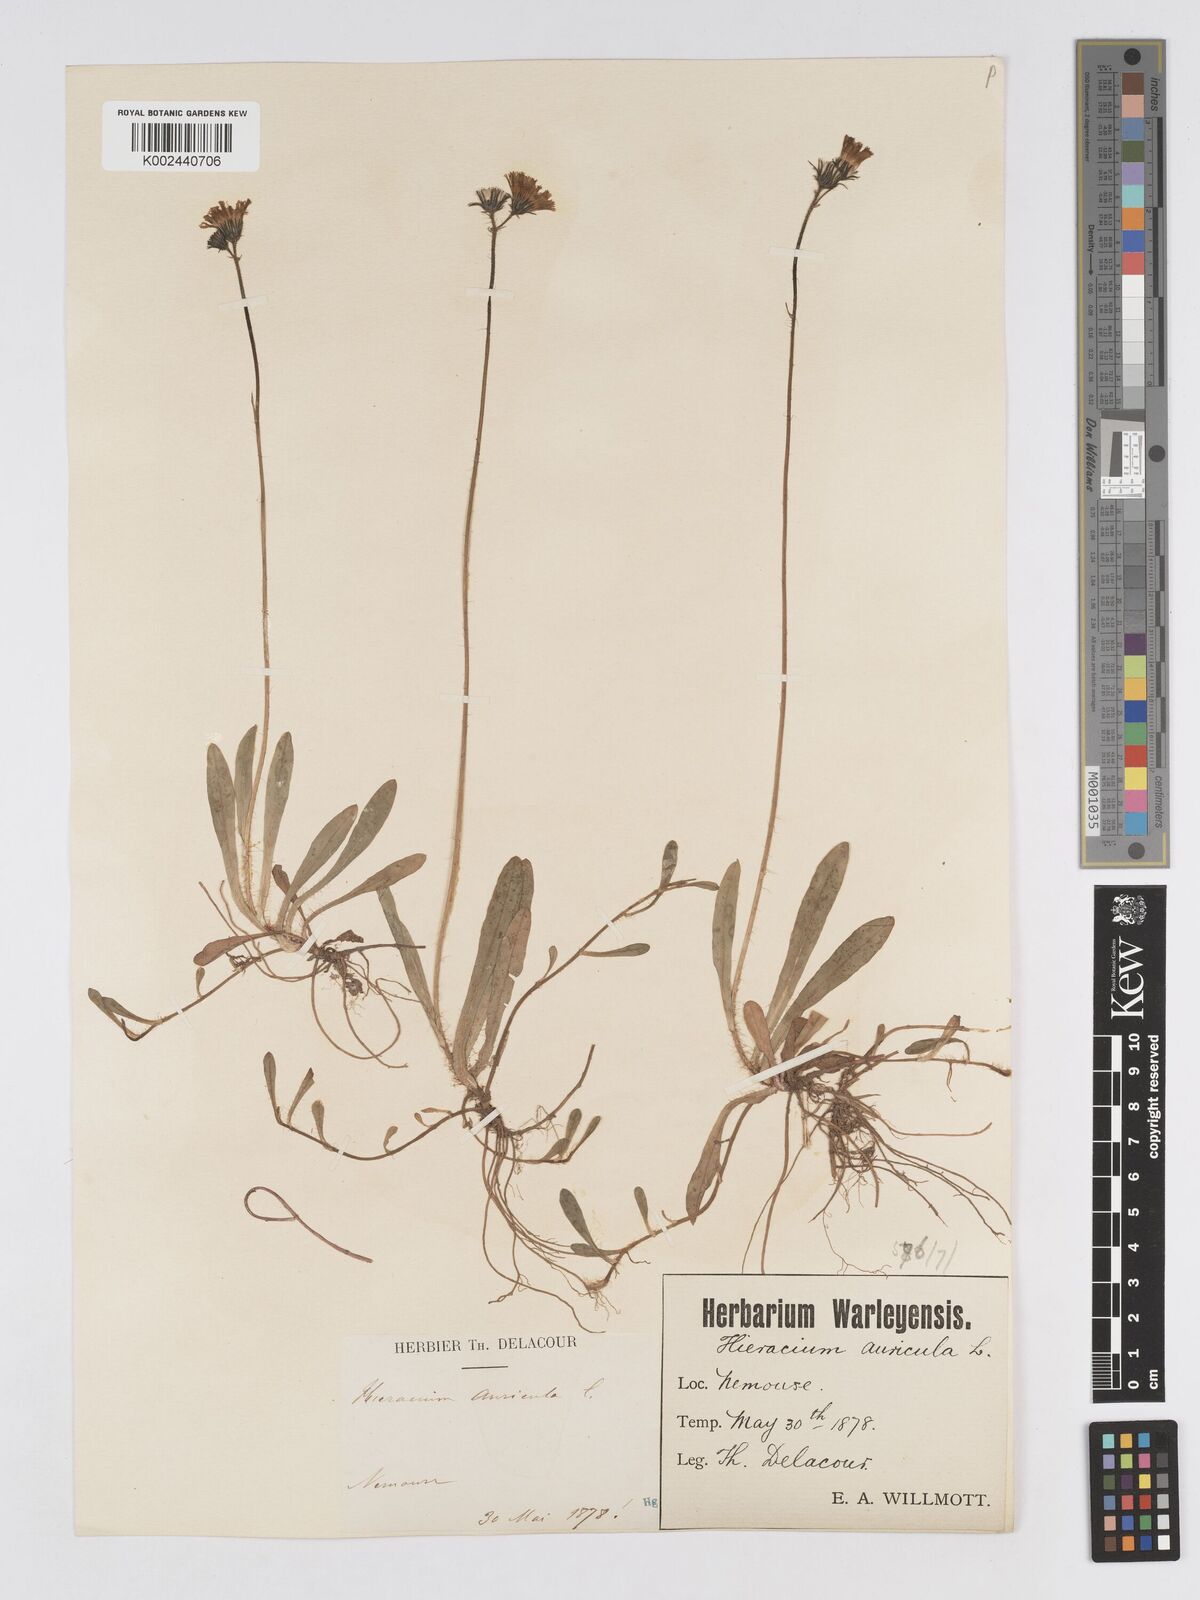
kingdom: Plantae
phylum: Tracheophyta
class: Magnoliopsida
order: Asterales
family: Asteraceae
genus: Pilosella
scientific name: Pilosella floribunda
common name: Glaucous hawkweed
